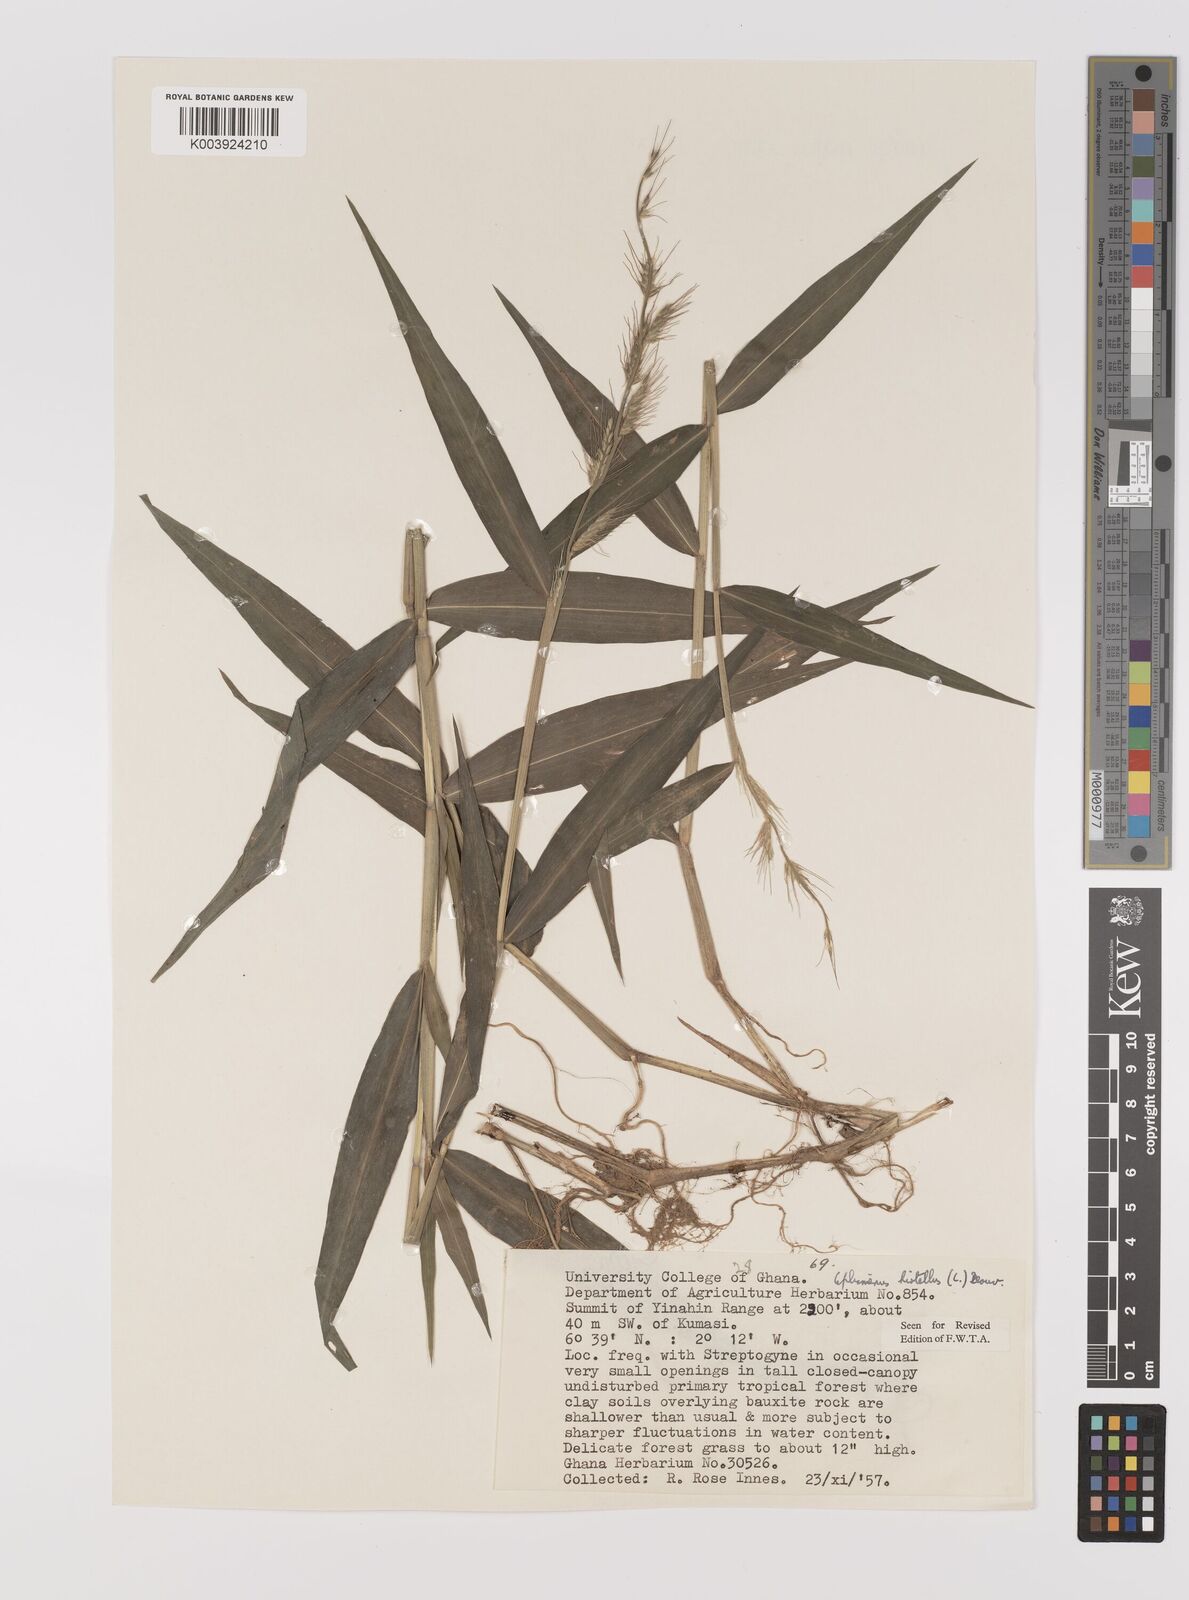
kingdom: Plantae
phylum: Tracheophyta
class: Liliopsida
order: Poales
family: Poaceae
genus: Oplismenus
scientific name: Oplismenus hirtellus
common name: Basketgrass
